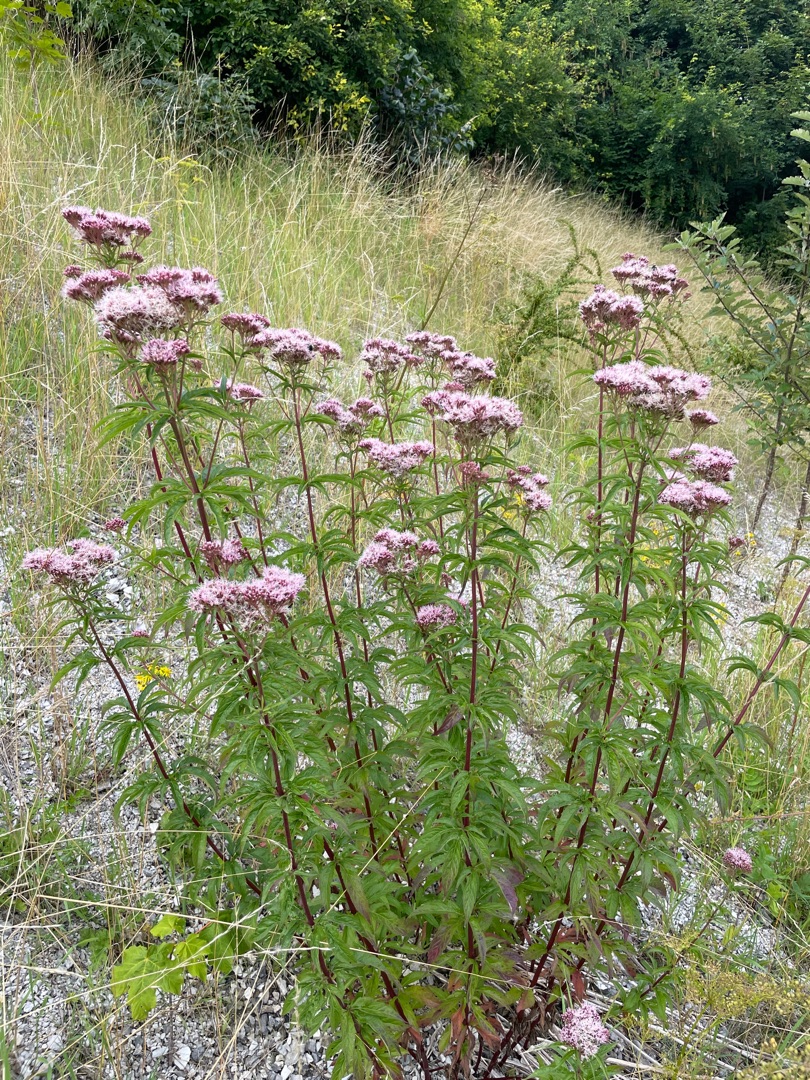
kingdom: Plantae
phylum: Tracheophyta
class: Magnoliopsida
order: Asterales
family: Asteraceae
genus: Eupatorium
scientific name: Eupatorium cannabinum
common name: Hjortetrøst
